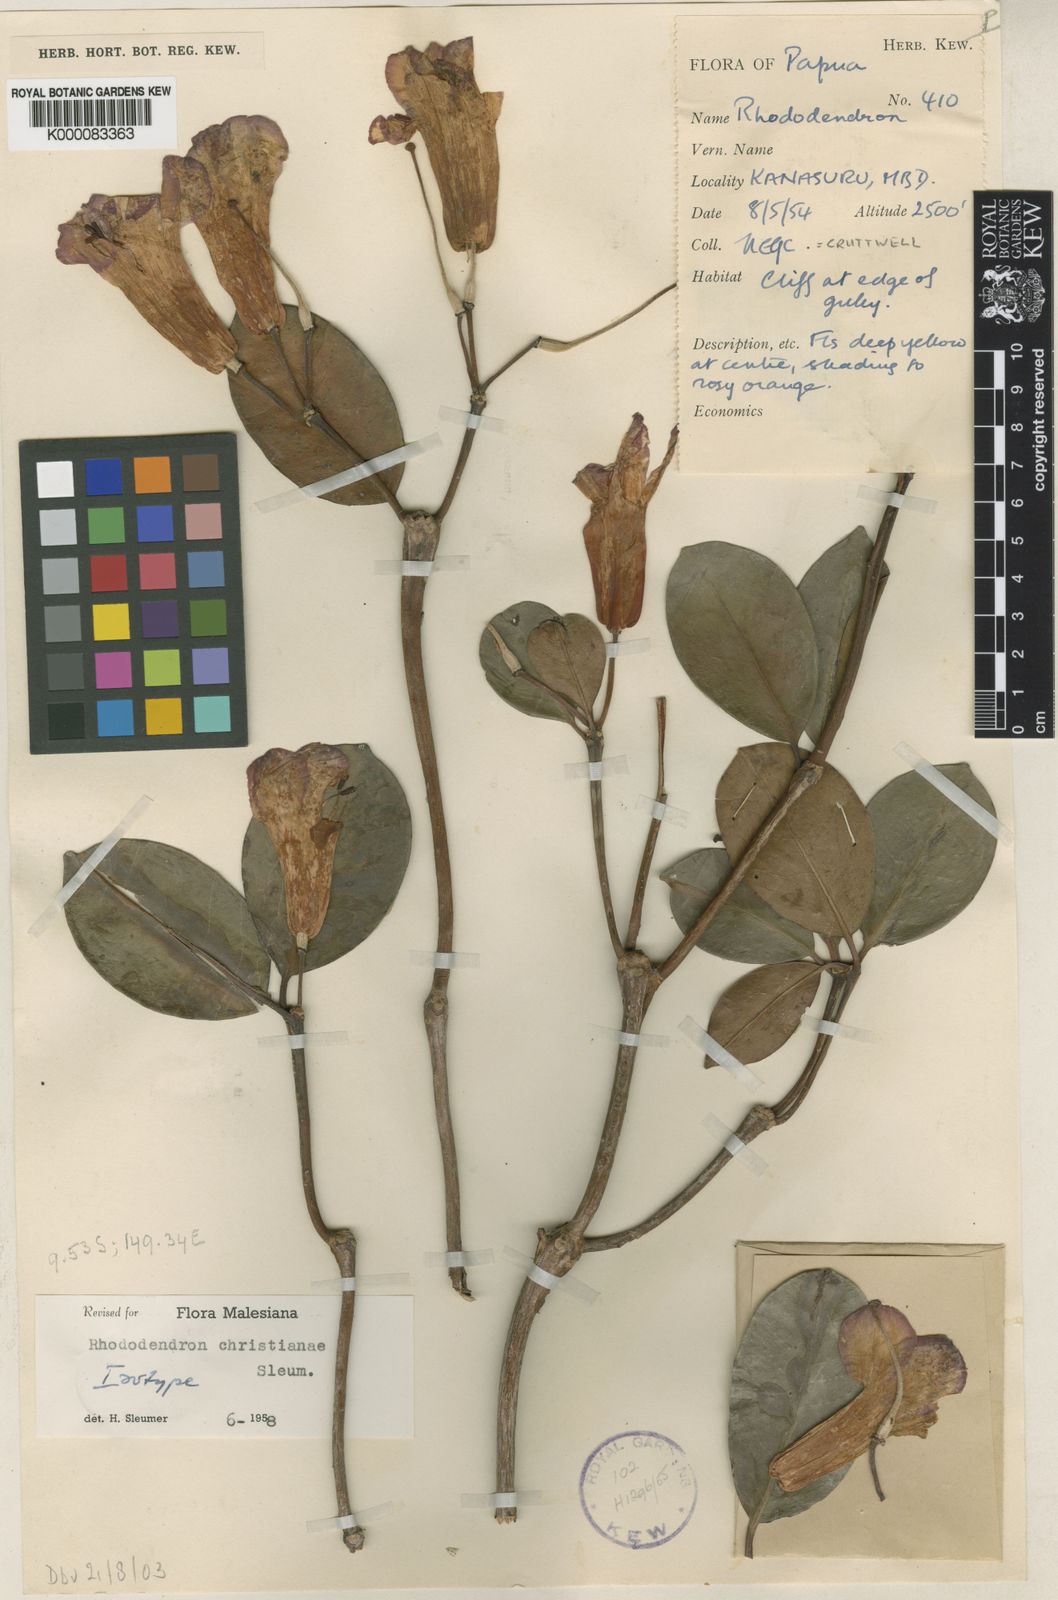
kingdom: Plantae
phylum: Tracheophyta
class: Magnoliopsida
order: Ericales
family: Ericaceae
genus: Rhododendron
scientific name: Rhododendron christianiae
